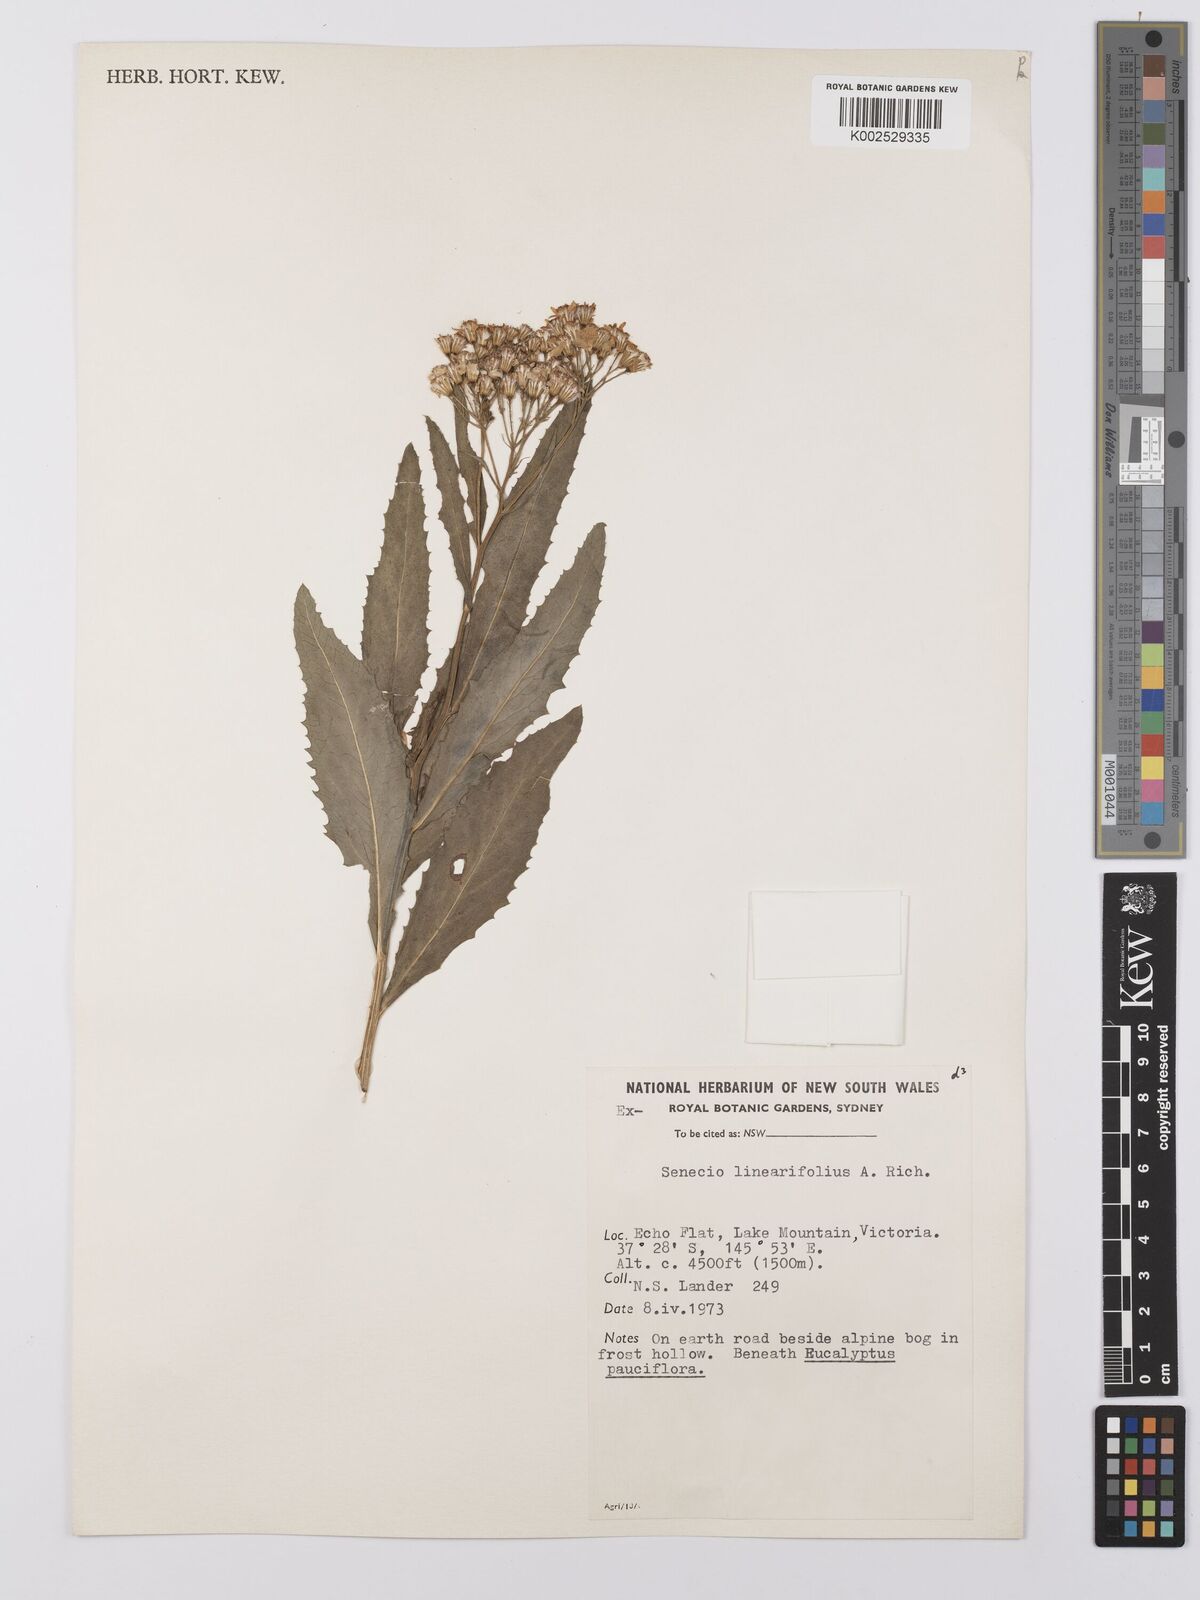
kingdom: Plantae
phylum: Tracheophyta
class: Magnoliopsida
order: Asterales
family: Asteraceae
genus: Senecio
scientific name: Senecio linearifolius
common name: Fireweed groundsel
